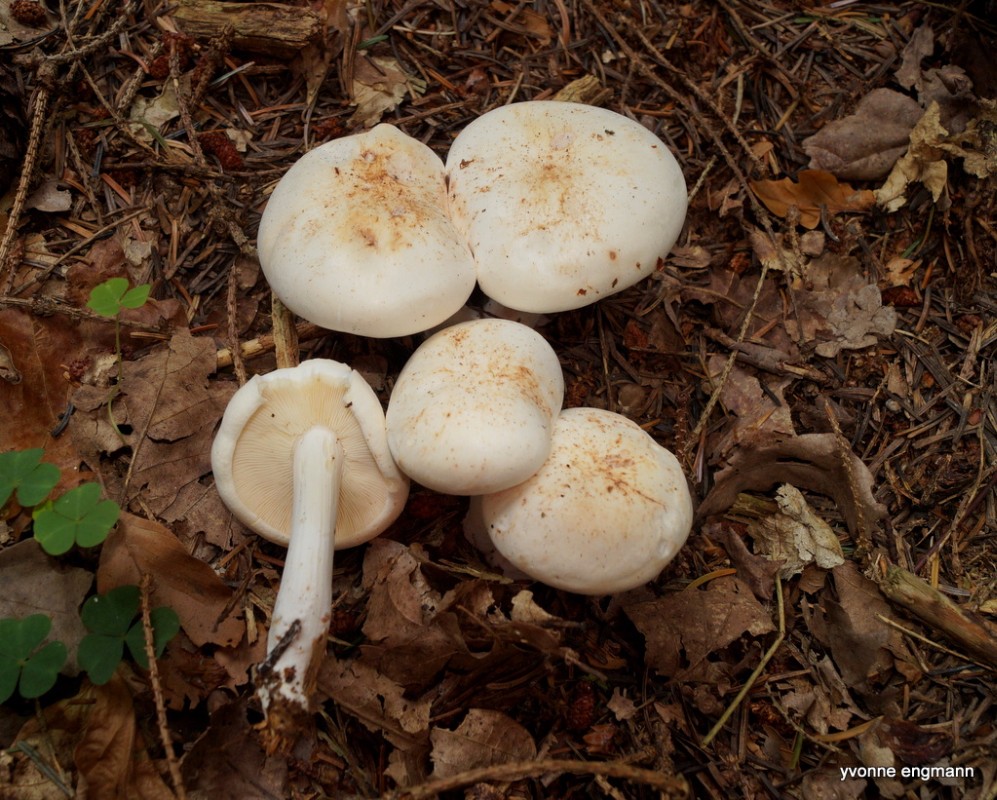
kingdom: Fungi
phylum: Basidiomycota
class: Agaricomycetes
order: Agaricales
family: Omphalotaceae
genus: Rhodocollybia
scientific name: Rhodocollybia maculata
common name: plettet fladhat
